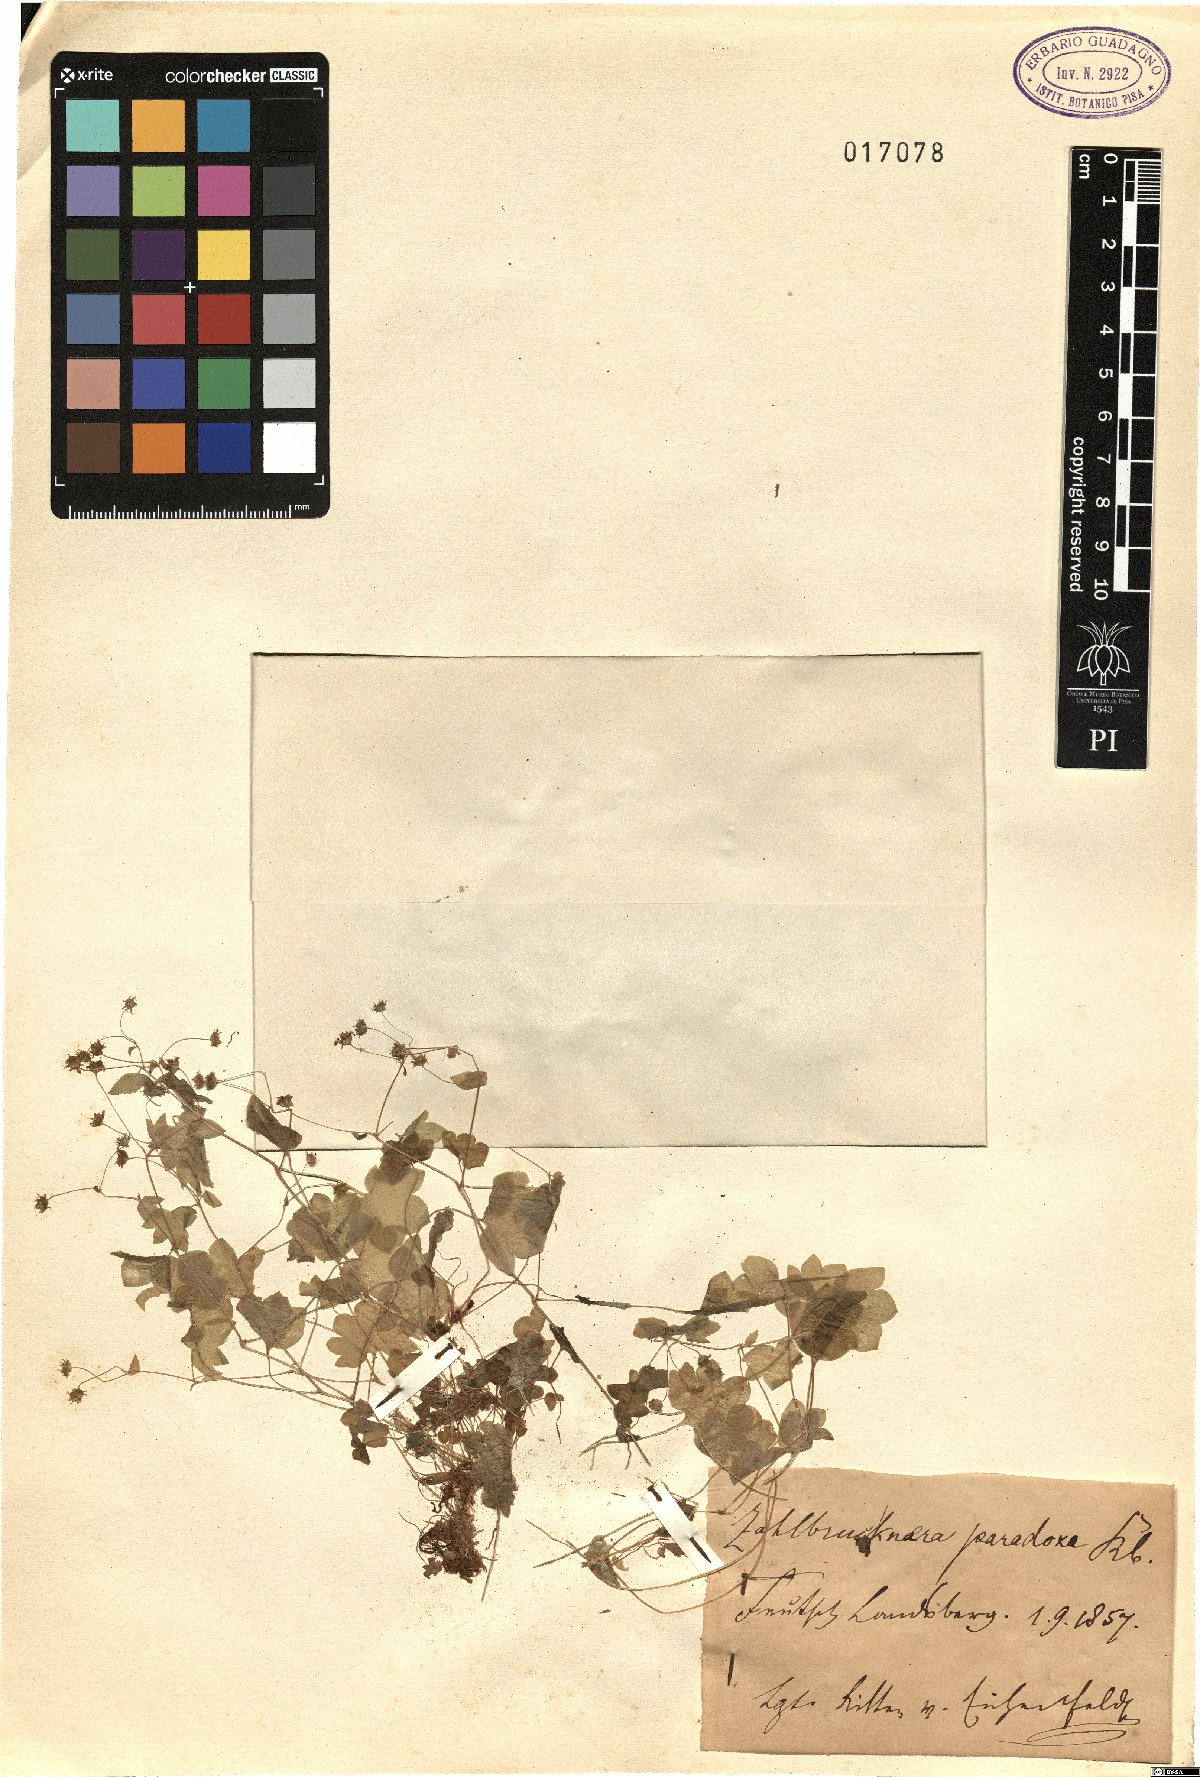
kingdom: Plantae
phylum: Tracheophyta
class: Magnoliopsida
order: Saxifragales
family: Saxifragaceae
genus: Saxifraga
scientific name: Saxifraga paradoxa
